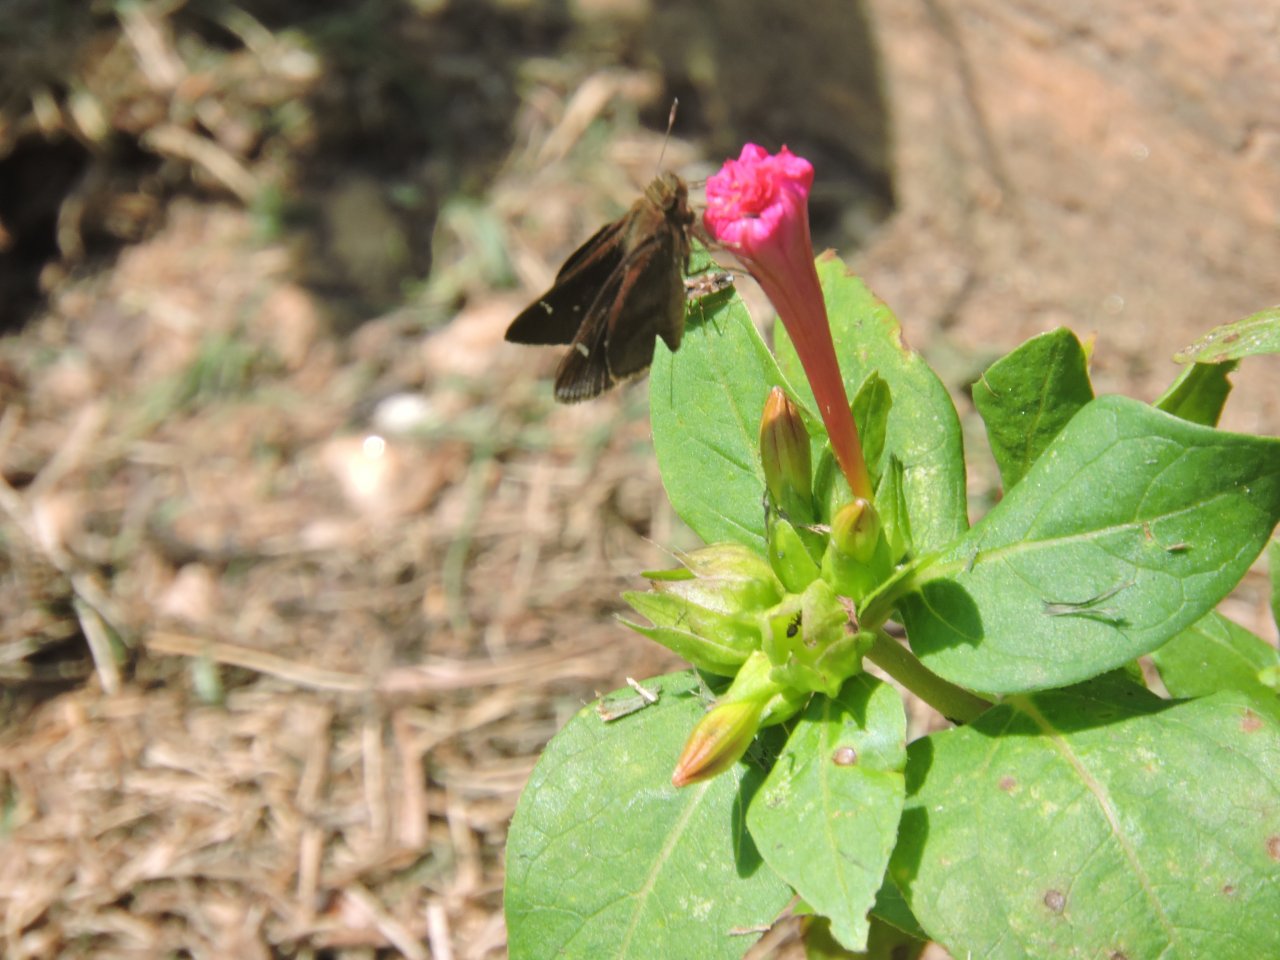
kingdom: Animalia
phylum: Arthropoda
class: Insecta
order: Lepidoptera
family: Hesperiidae
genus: Lerema
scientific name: Lerema accius
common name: Clouded Skipper
